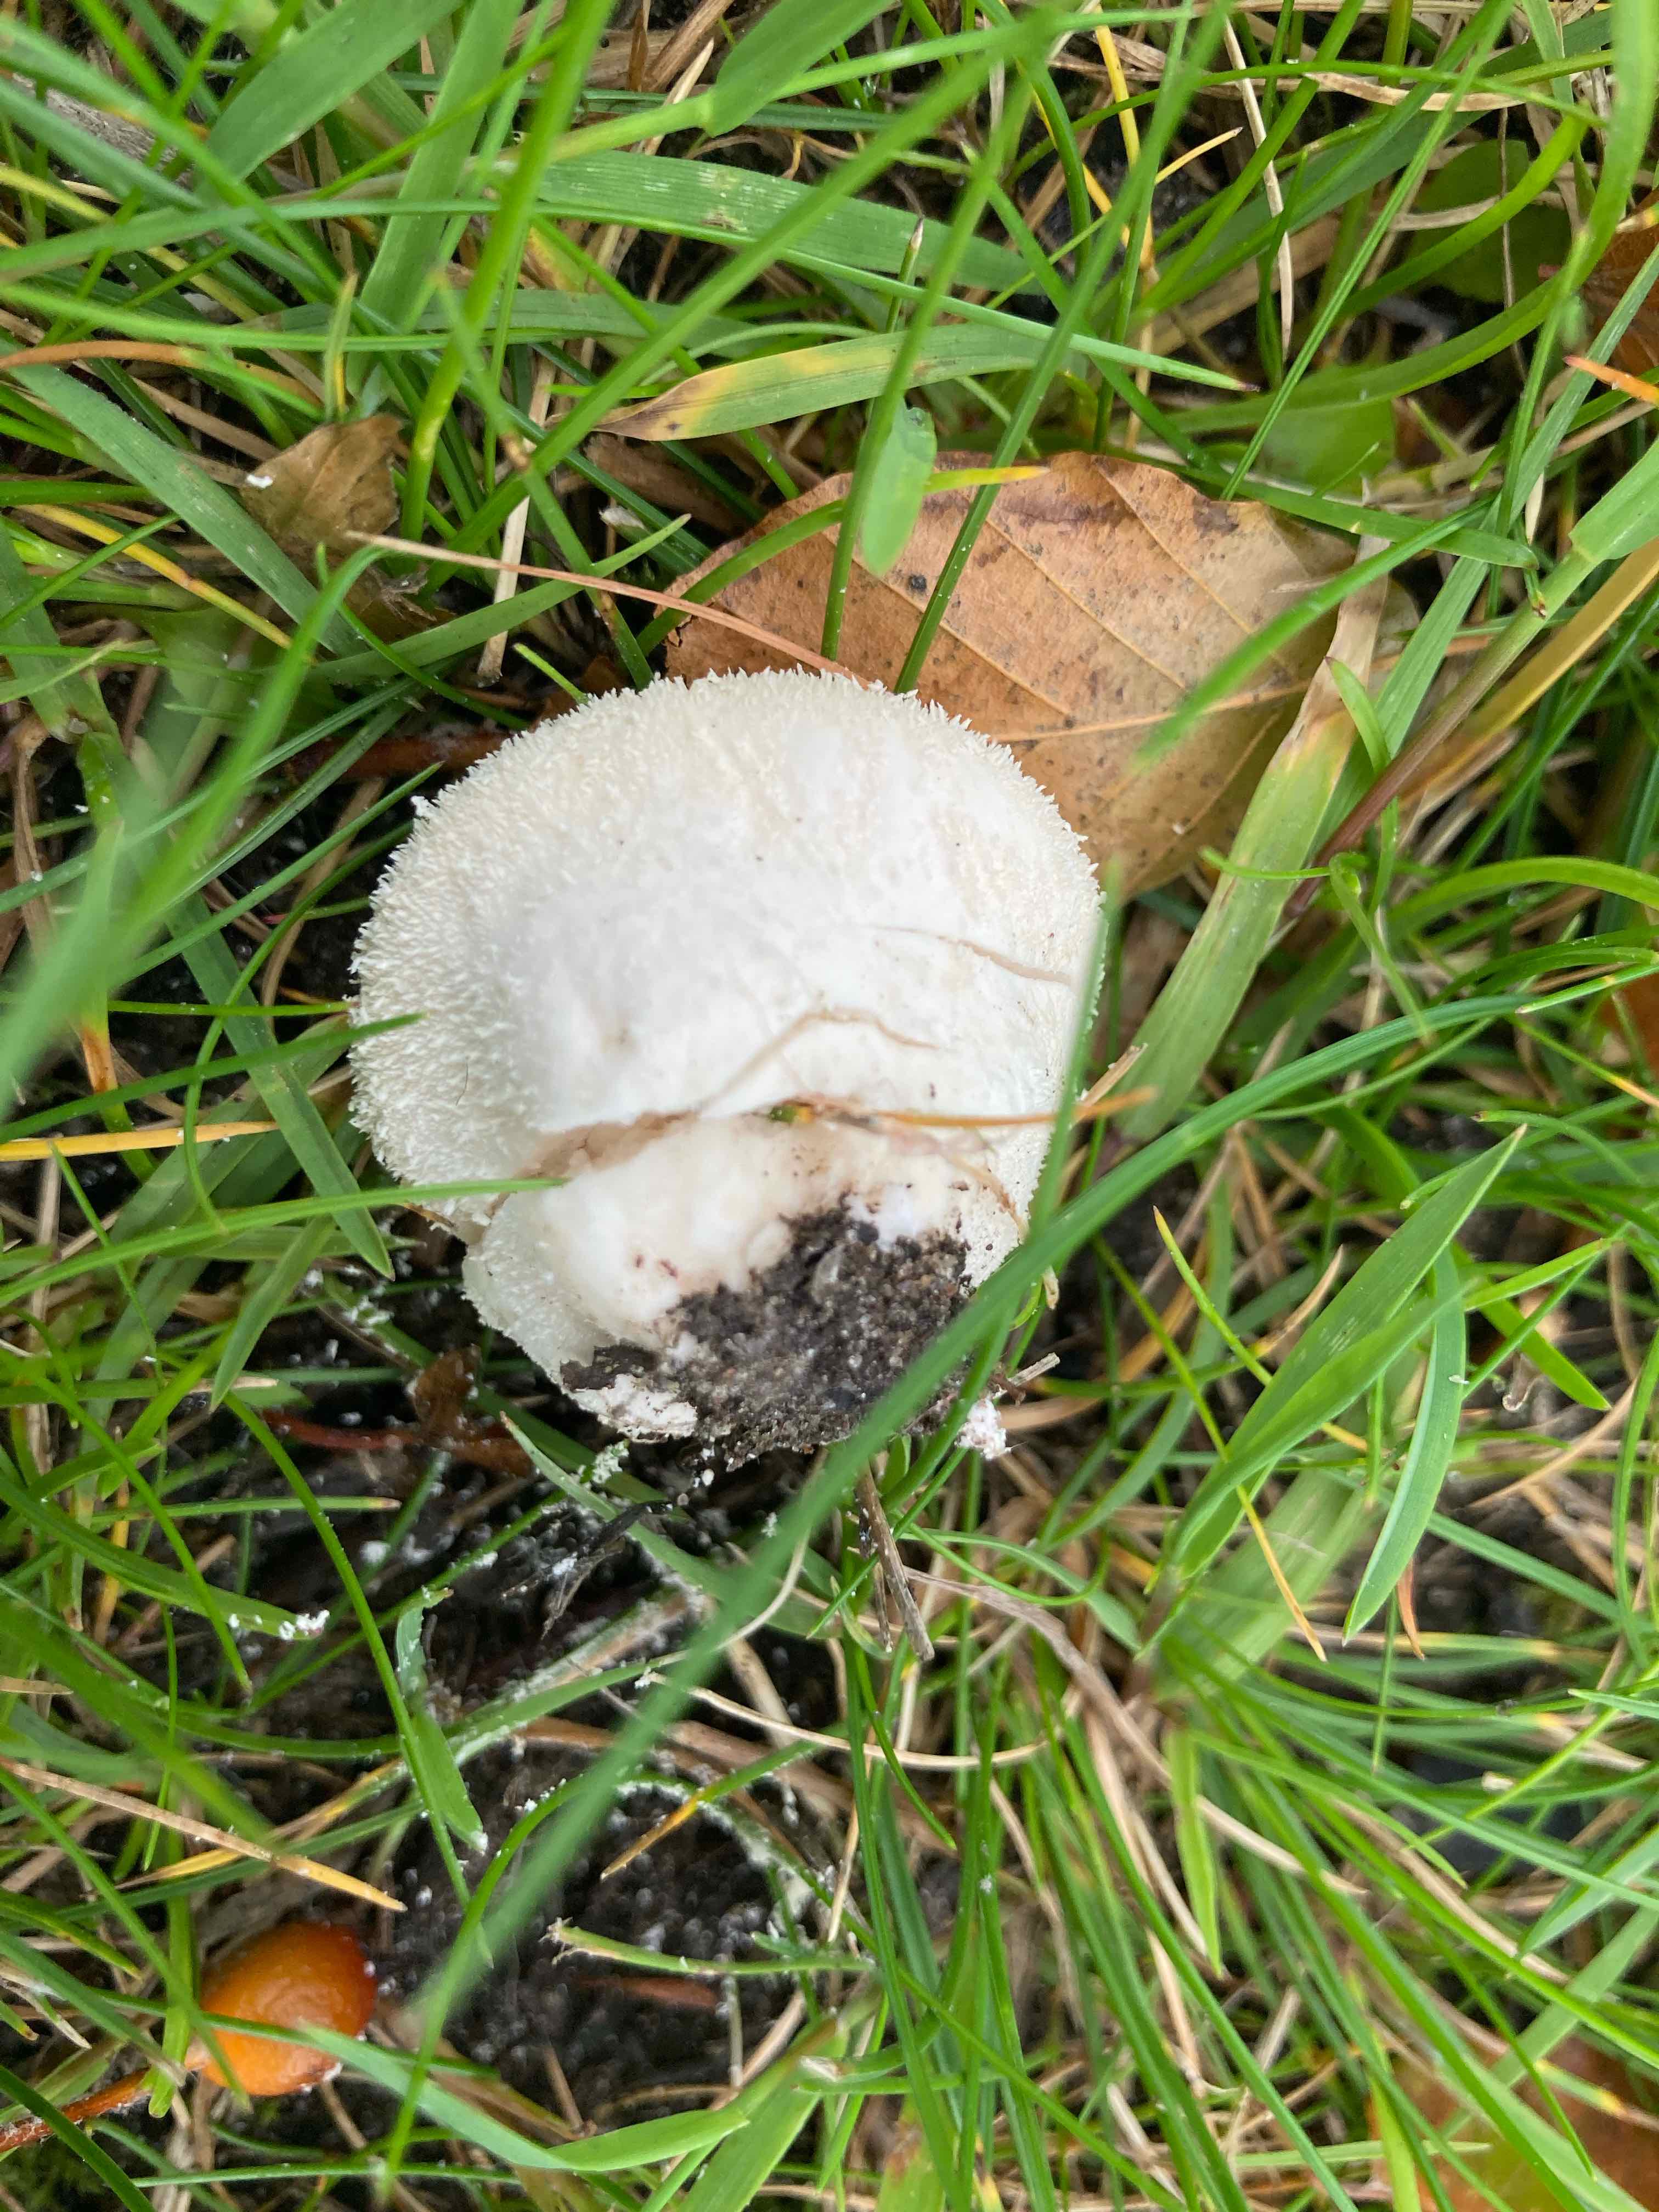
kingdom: Fungi
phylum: Basidiomycota
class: Agaricomycetes
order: Agaricales
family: Lycoperdaceae
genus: Lycoperdon
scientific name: Lycoperdon pratense
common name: flad støvbold
